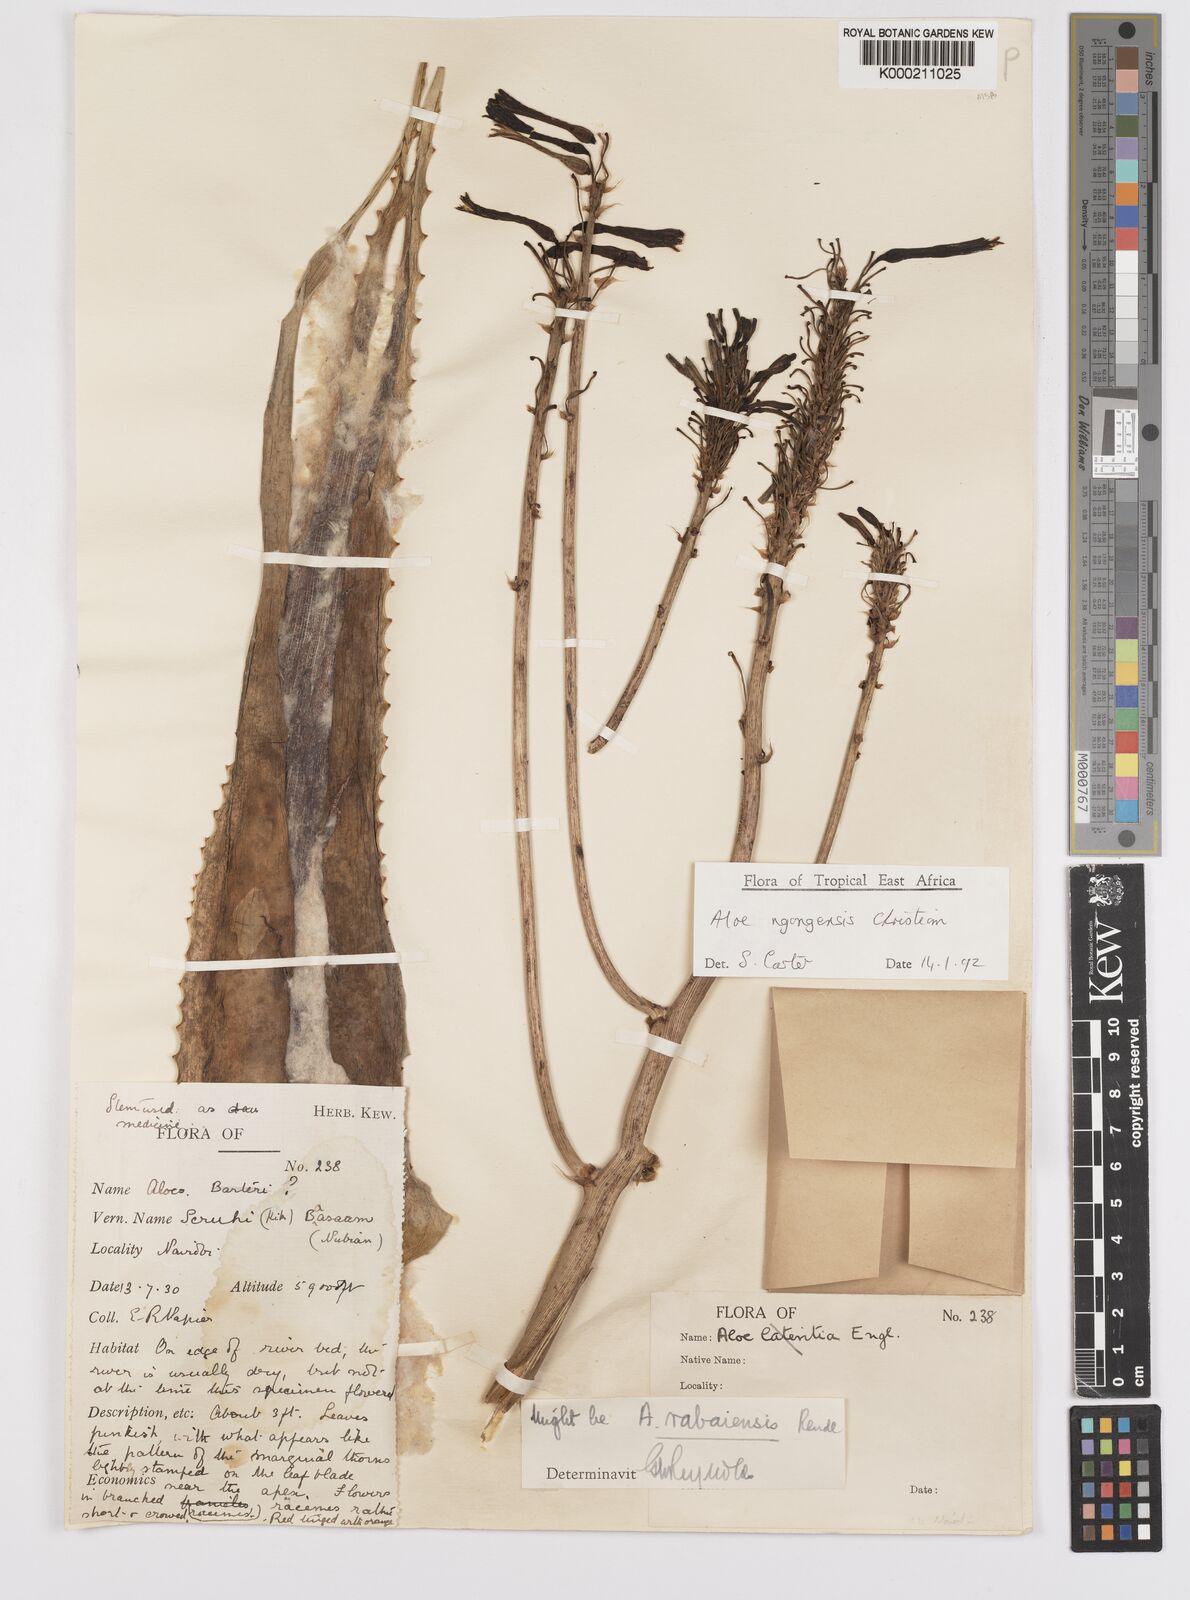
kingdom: Plantae
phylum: Tracheophyta
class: Liliopsida
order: Asparagales
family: Asphodelaceae
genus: Aloe
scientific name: Aloe ngongensis
